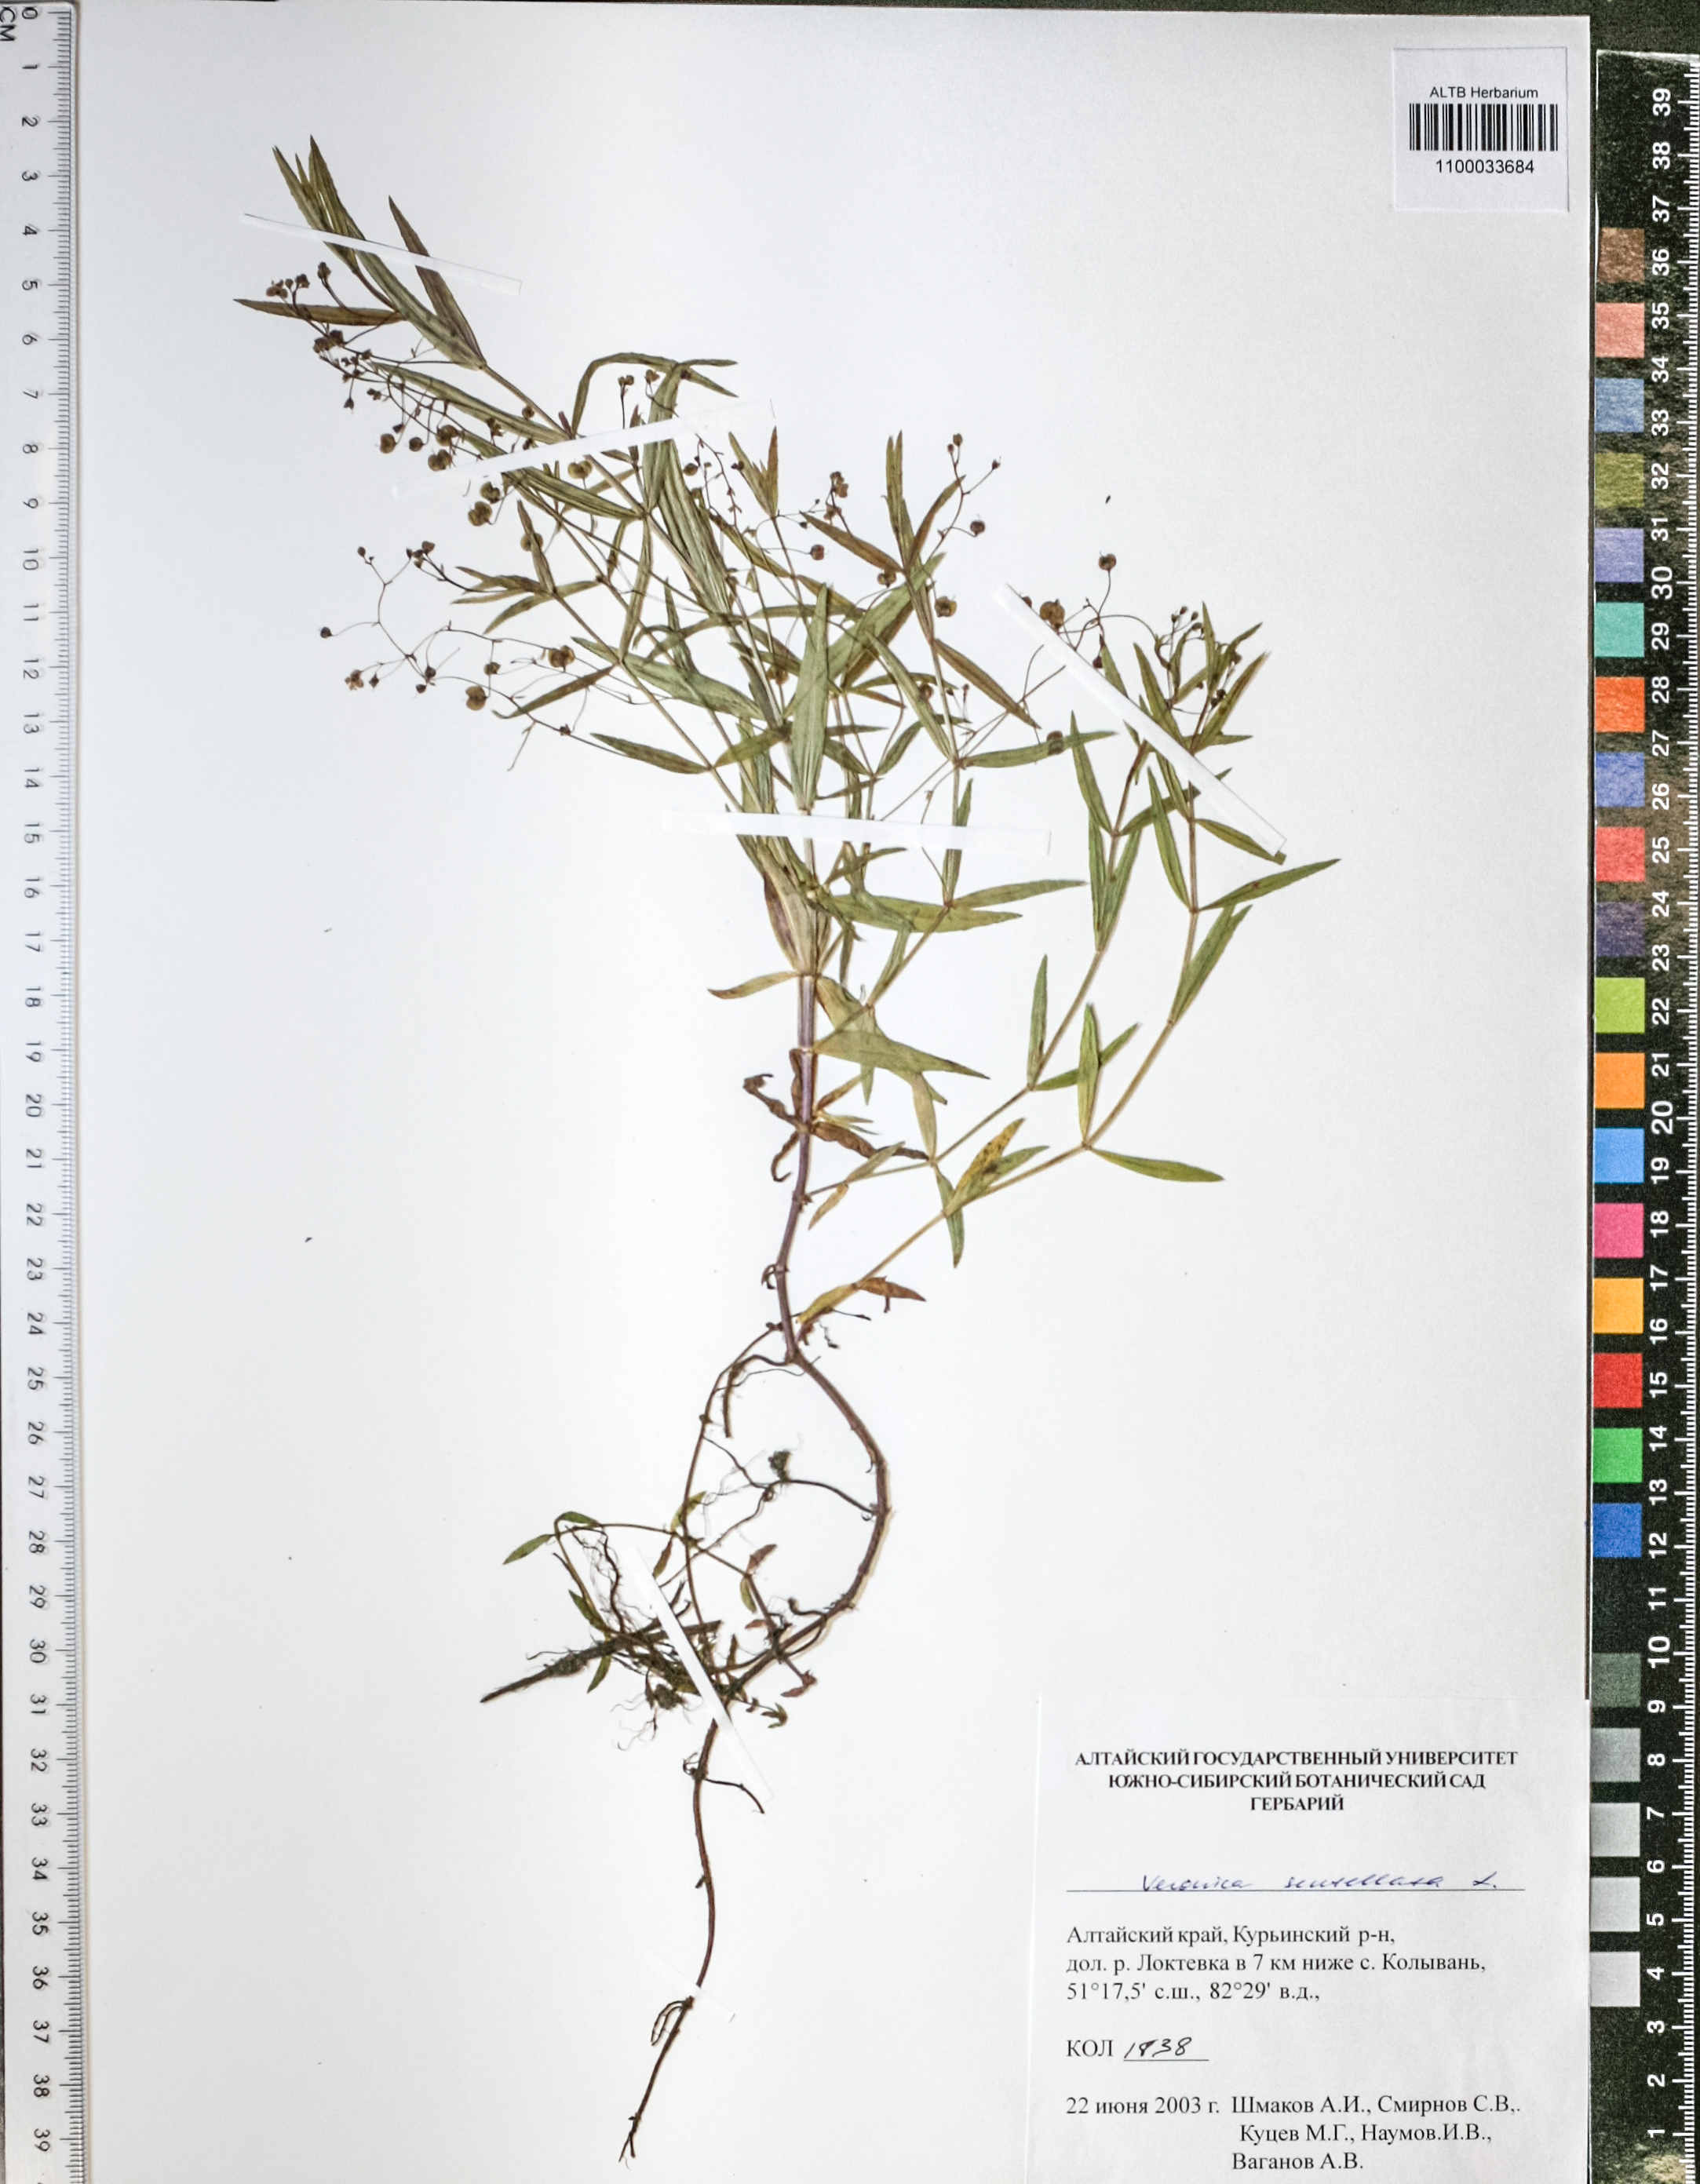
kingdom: Plantae
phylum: Tracheophyta
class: Magnoliopsida
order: Lamiales
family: Plantaginaceae
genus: Veronica
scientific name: Veronica scutellata
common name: Marsh speedwell
